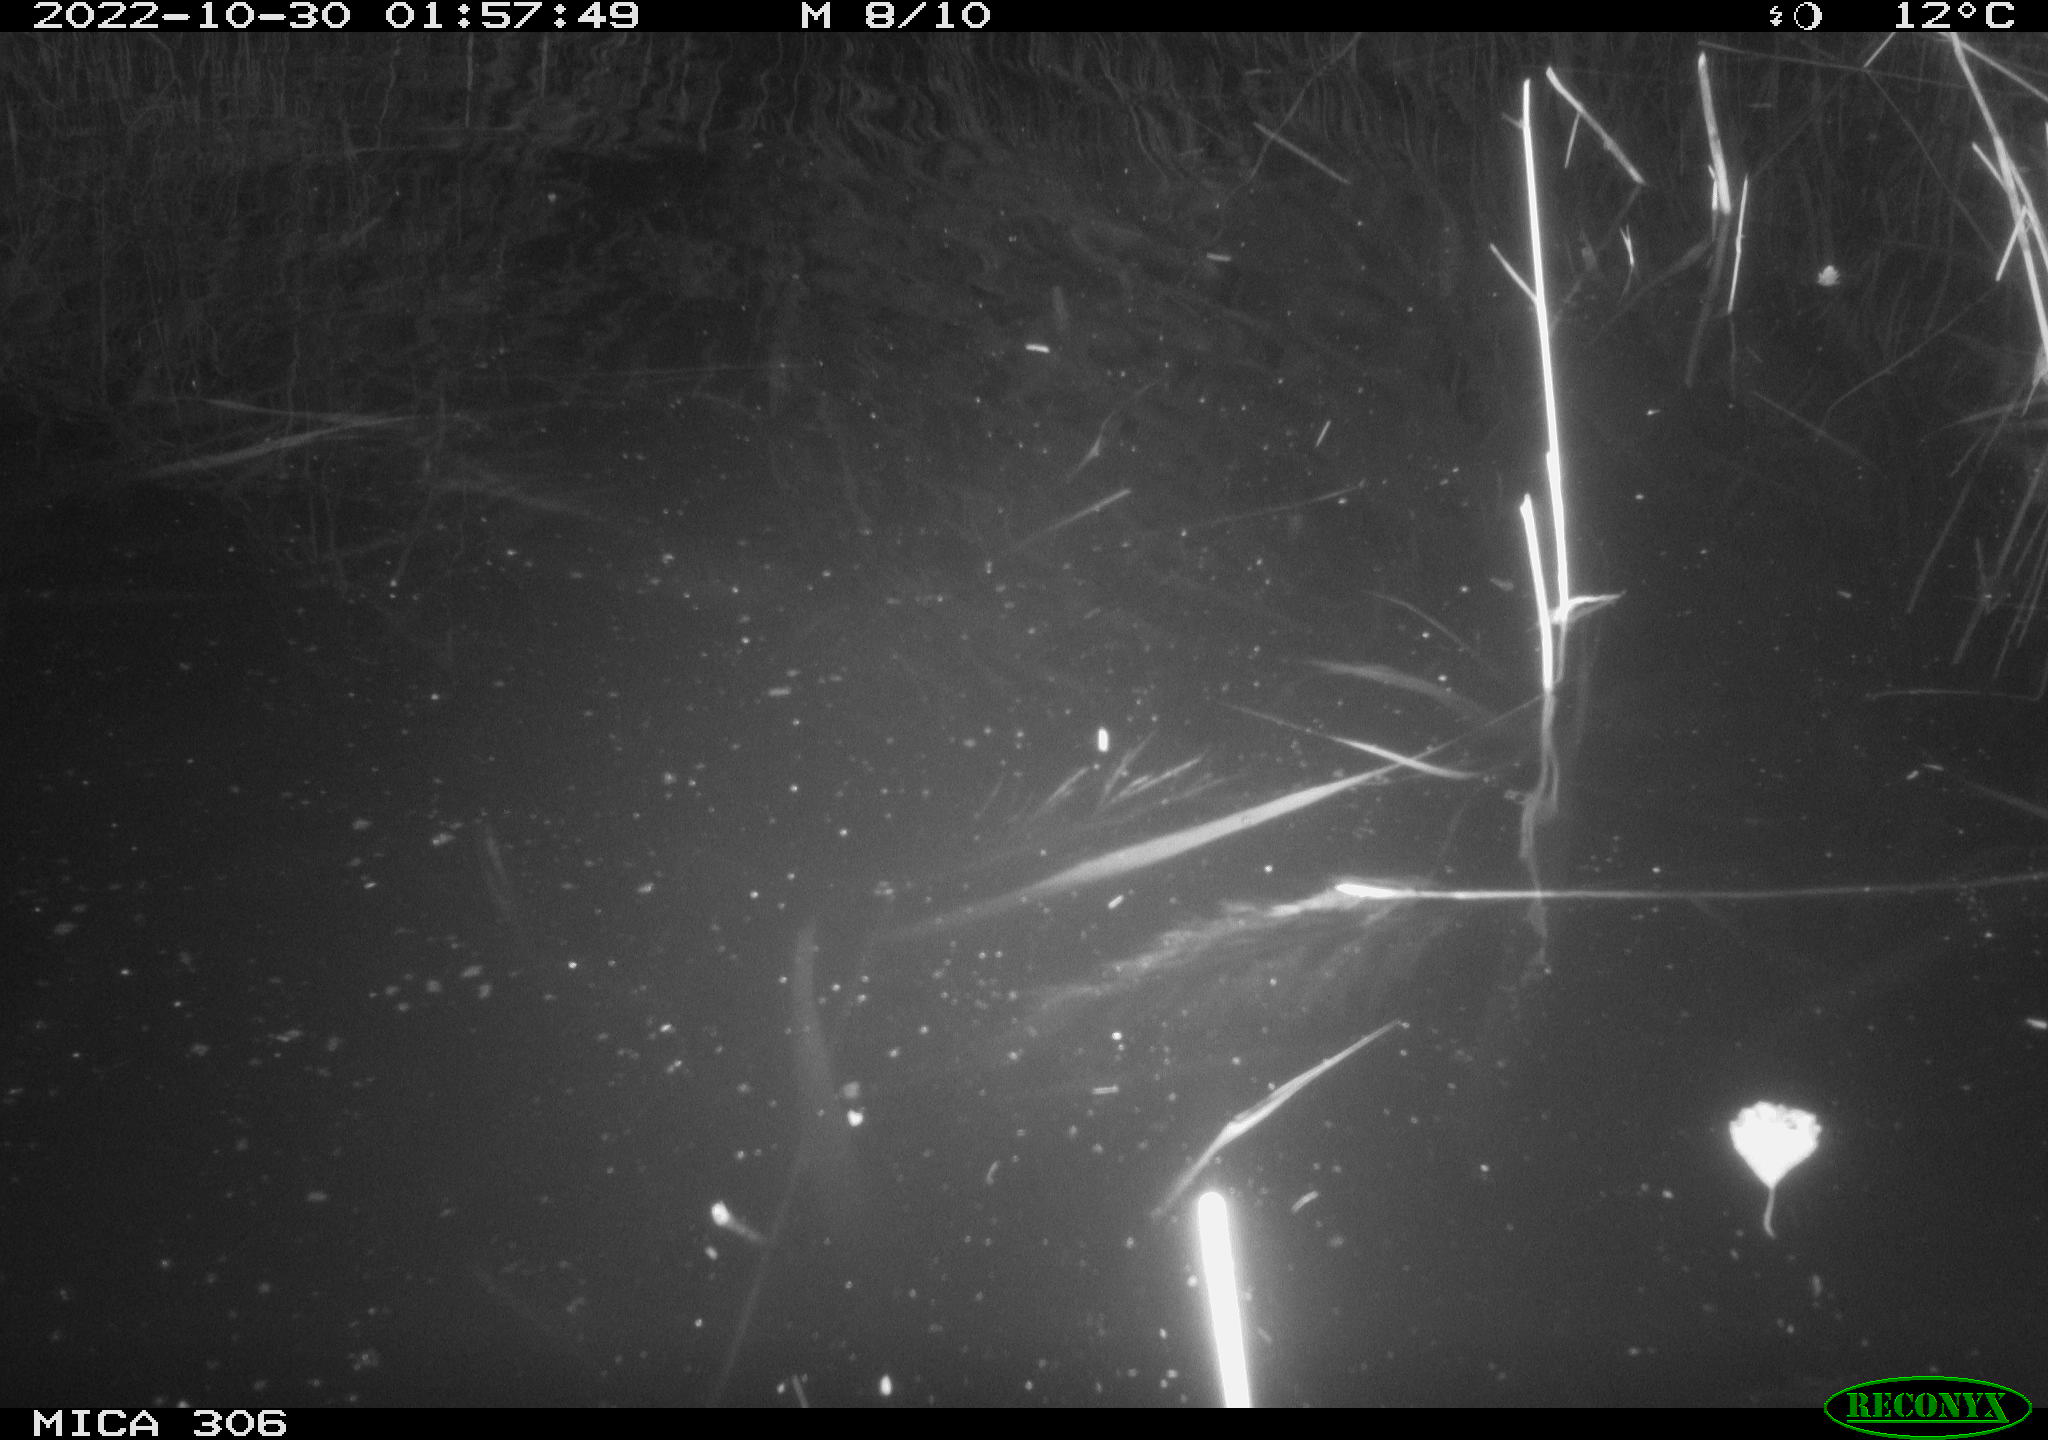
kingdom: Animalia
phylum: Chordata
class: Mammalia
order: Rodentia
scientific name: Rodentia
